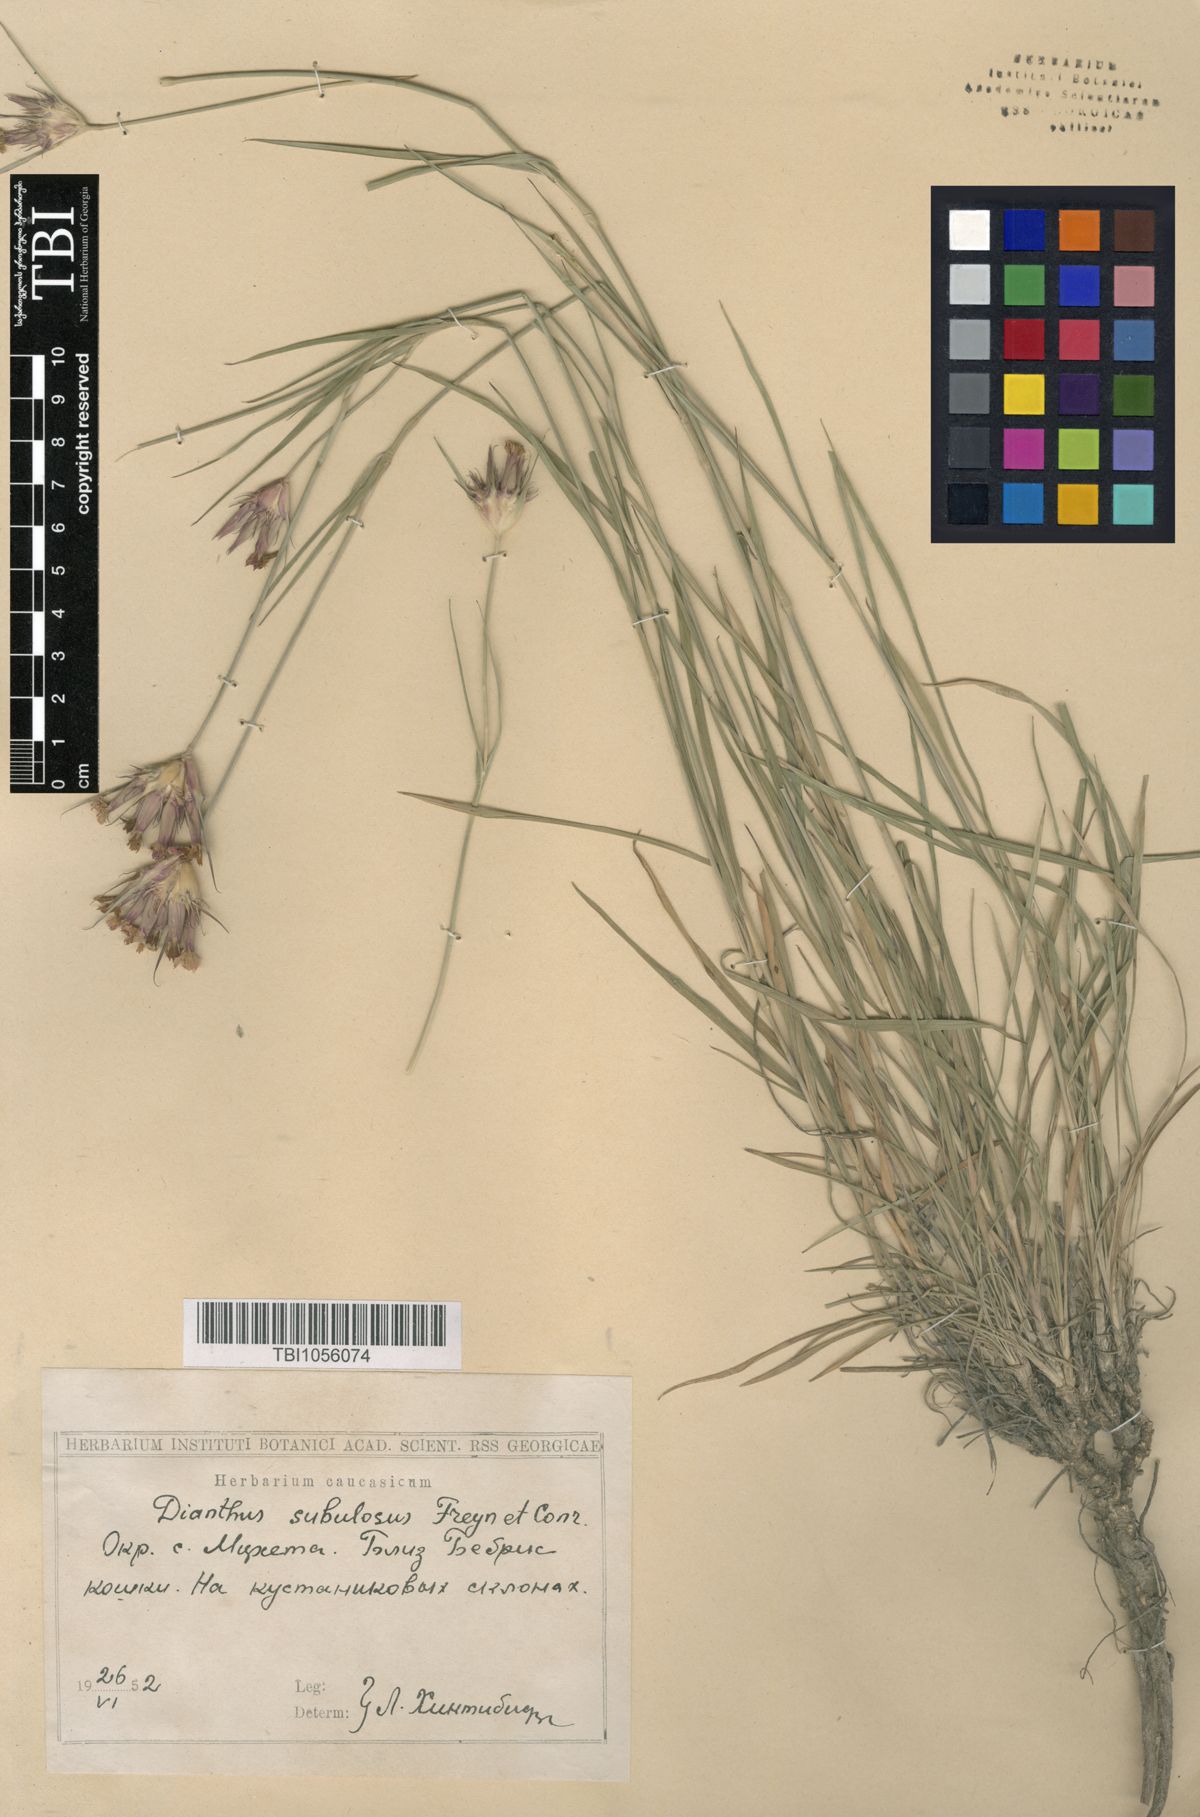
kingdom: Plantae
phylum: Tracheophyta
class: Magnoliopsida
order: Caryophyllales
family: Caryophyllaceae
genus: Dianthus
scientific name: Dianthus subulosus
